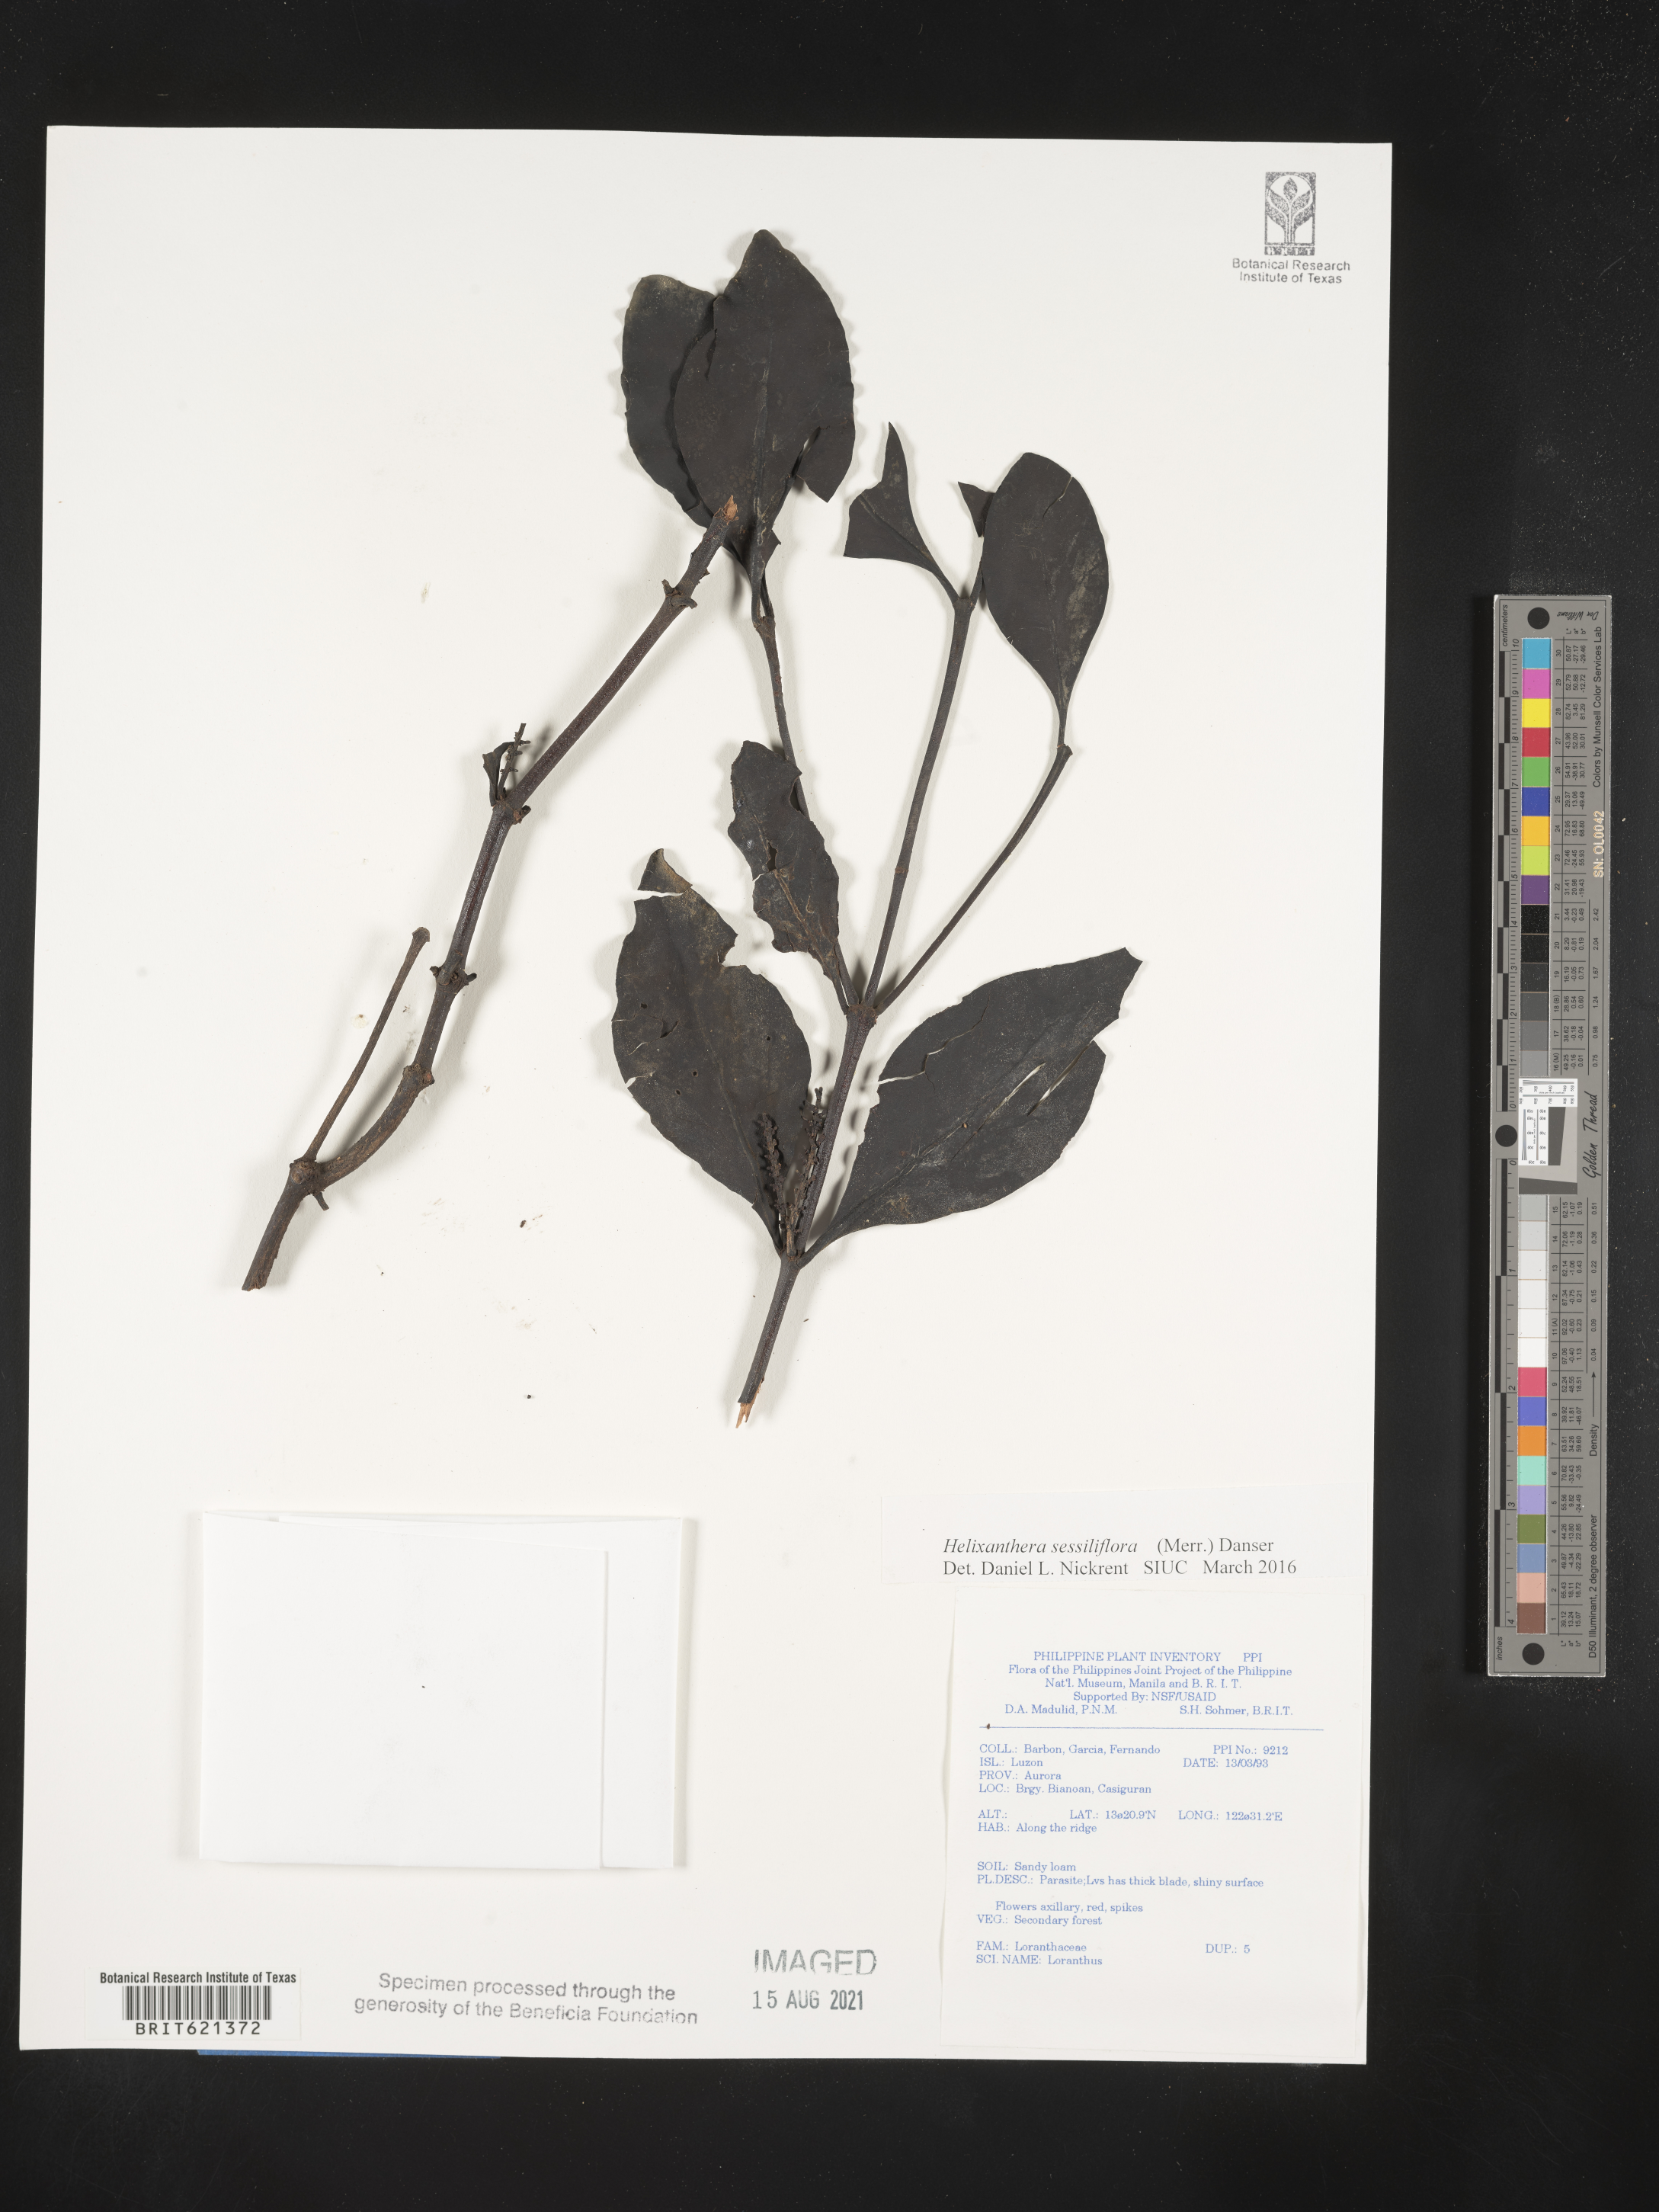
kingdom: Plantae
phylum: Tracheophyta
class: Magnoliopsida
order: Santalales
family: Loranthaceae
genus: Helixanthera
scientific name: Helixanthera sessiliflora
